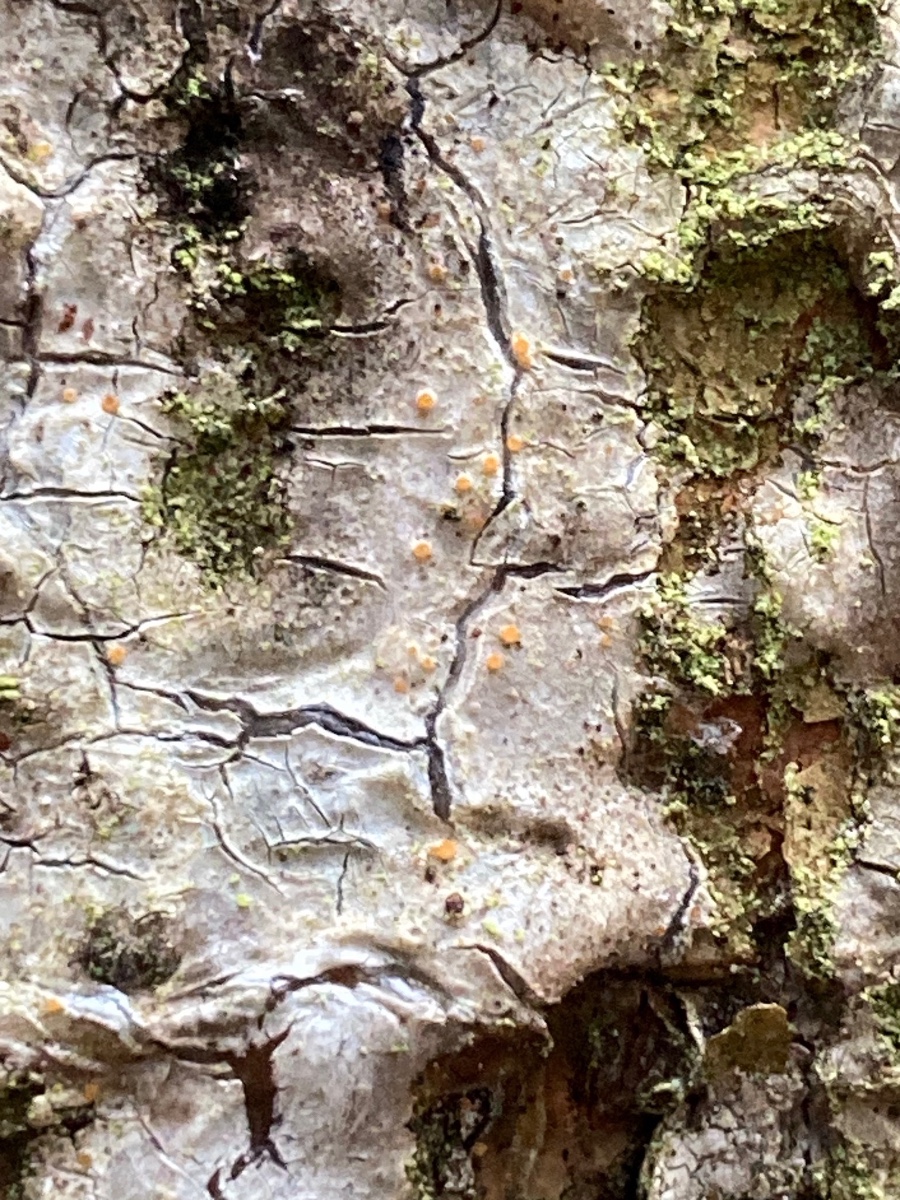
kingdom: Fungi
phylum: Ascomycota
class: Sareomycetes
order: Sareales
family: Sareaceae
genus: Sarea
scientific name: Sarea resinae
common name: orangegul harpiksskive
